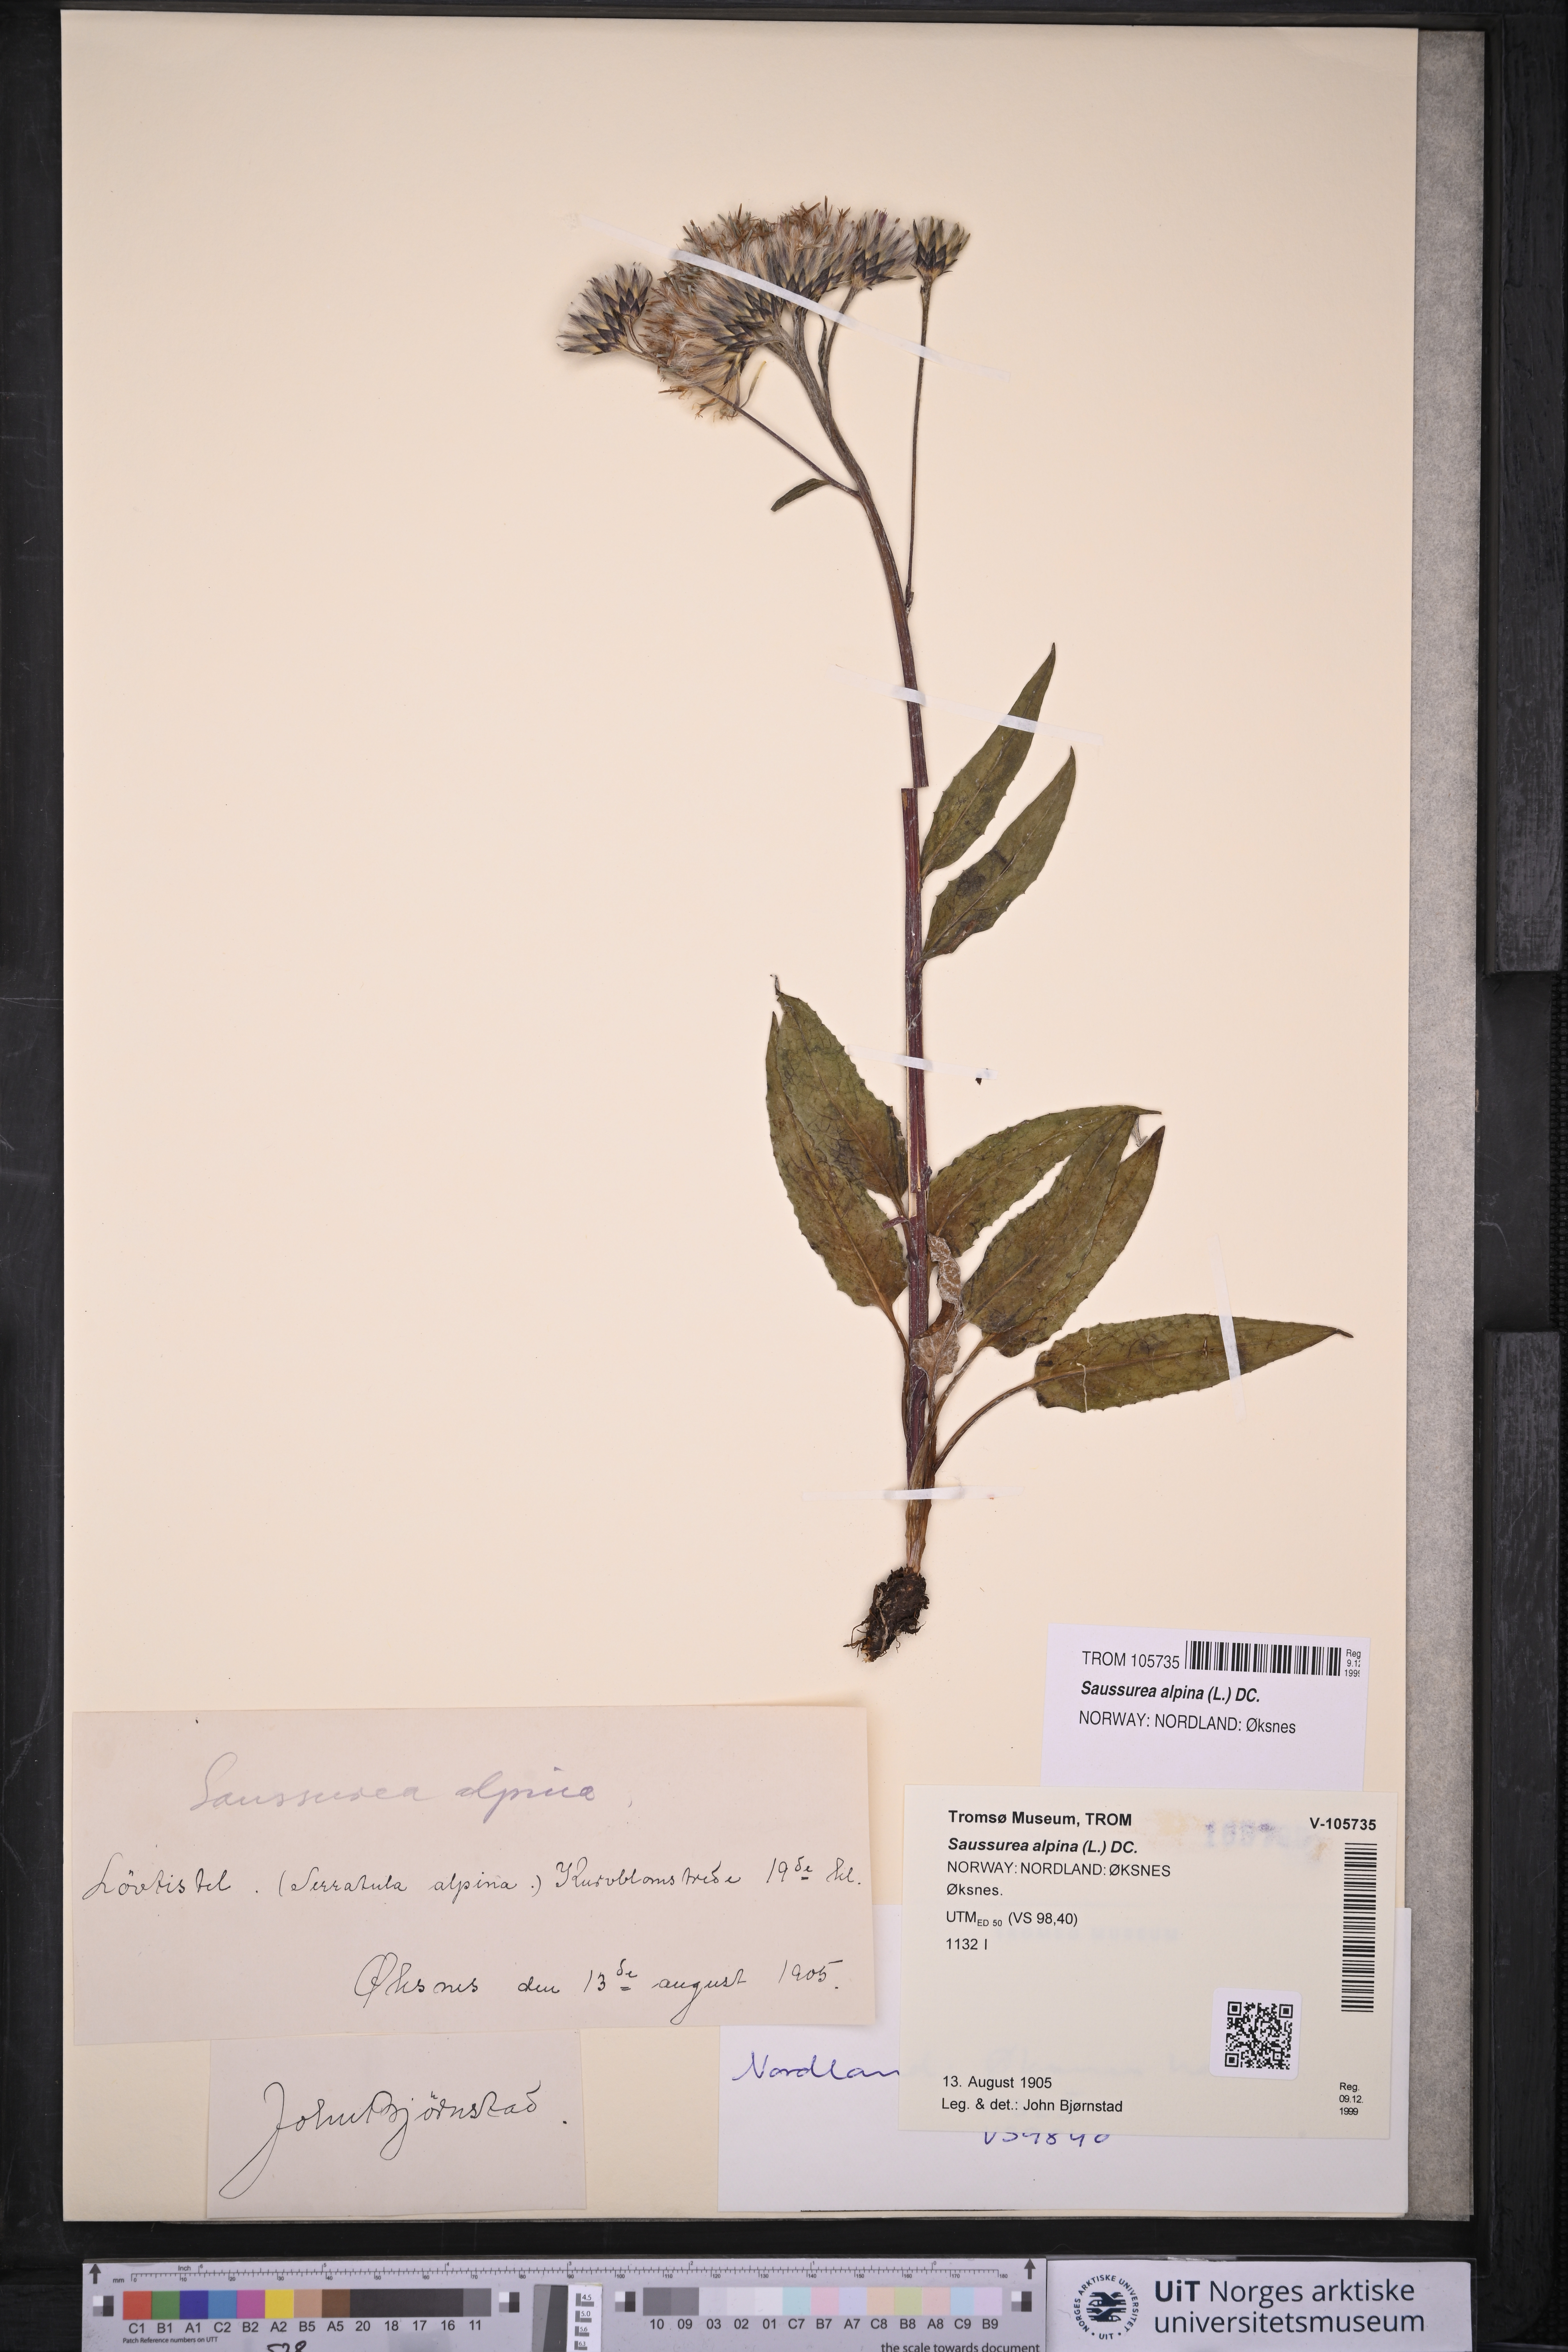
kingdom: Plantae
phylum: Tracheophyta
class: Magnoliopsida
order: Asterales
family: Asteraceae
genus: Saussurea
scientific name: Saussurea alpina
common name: Alpine saw-wort
